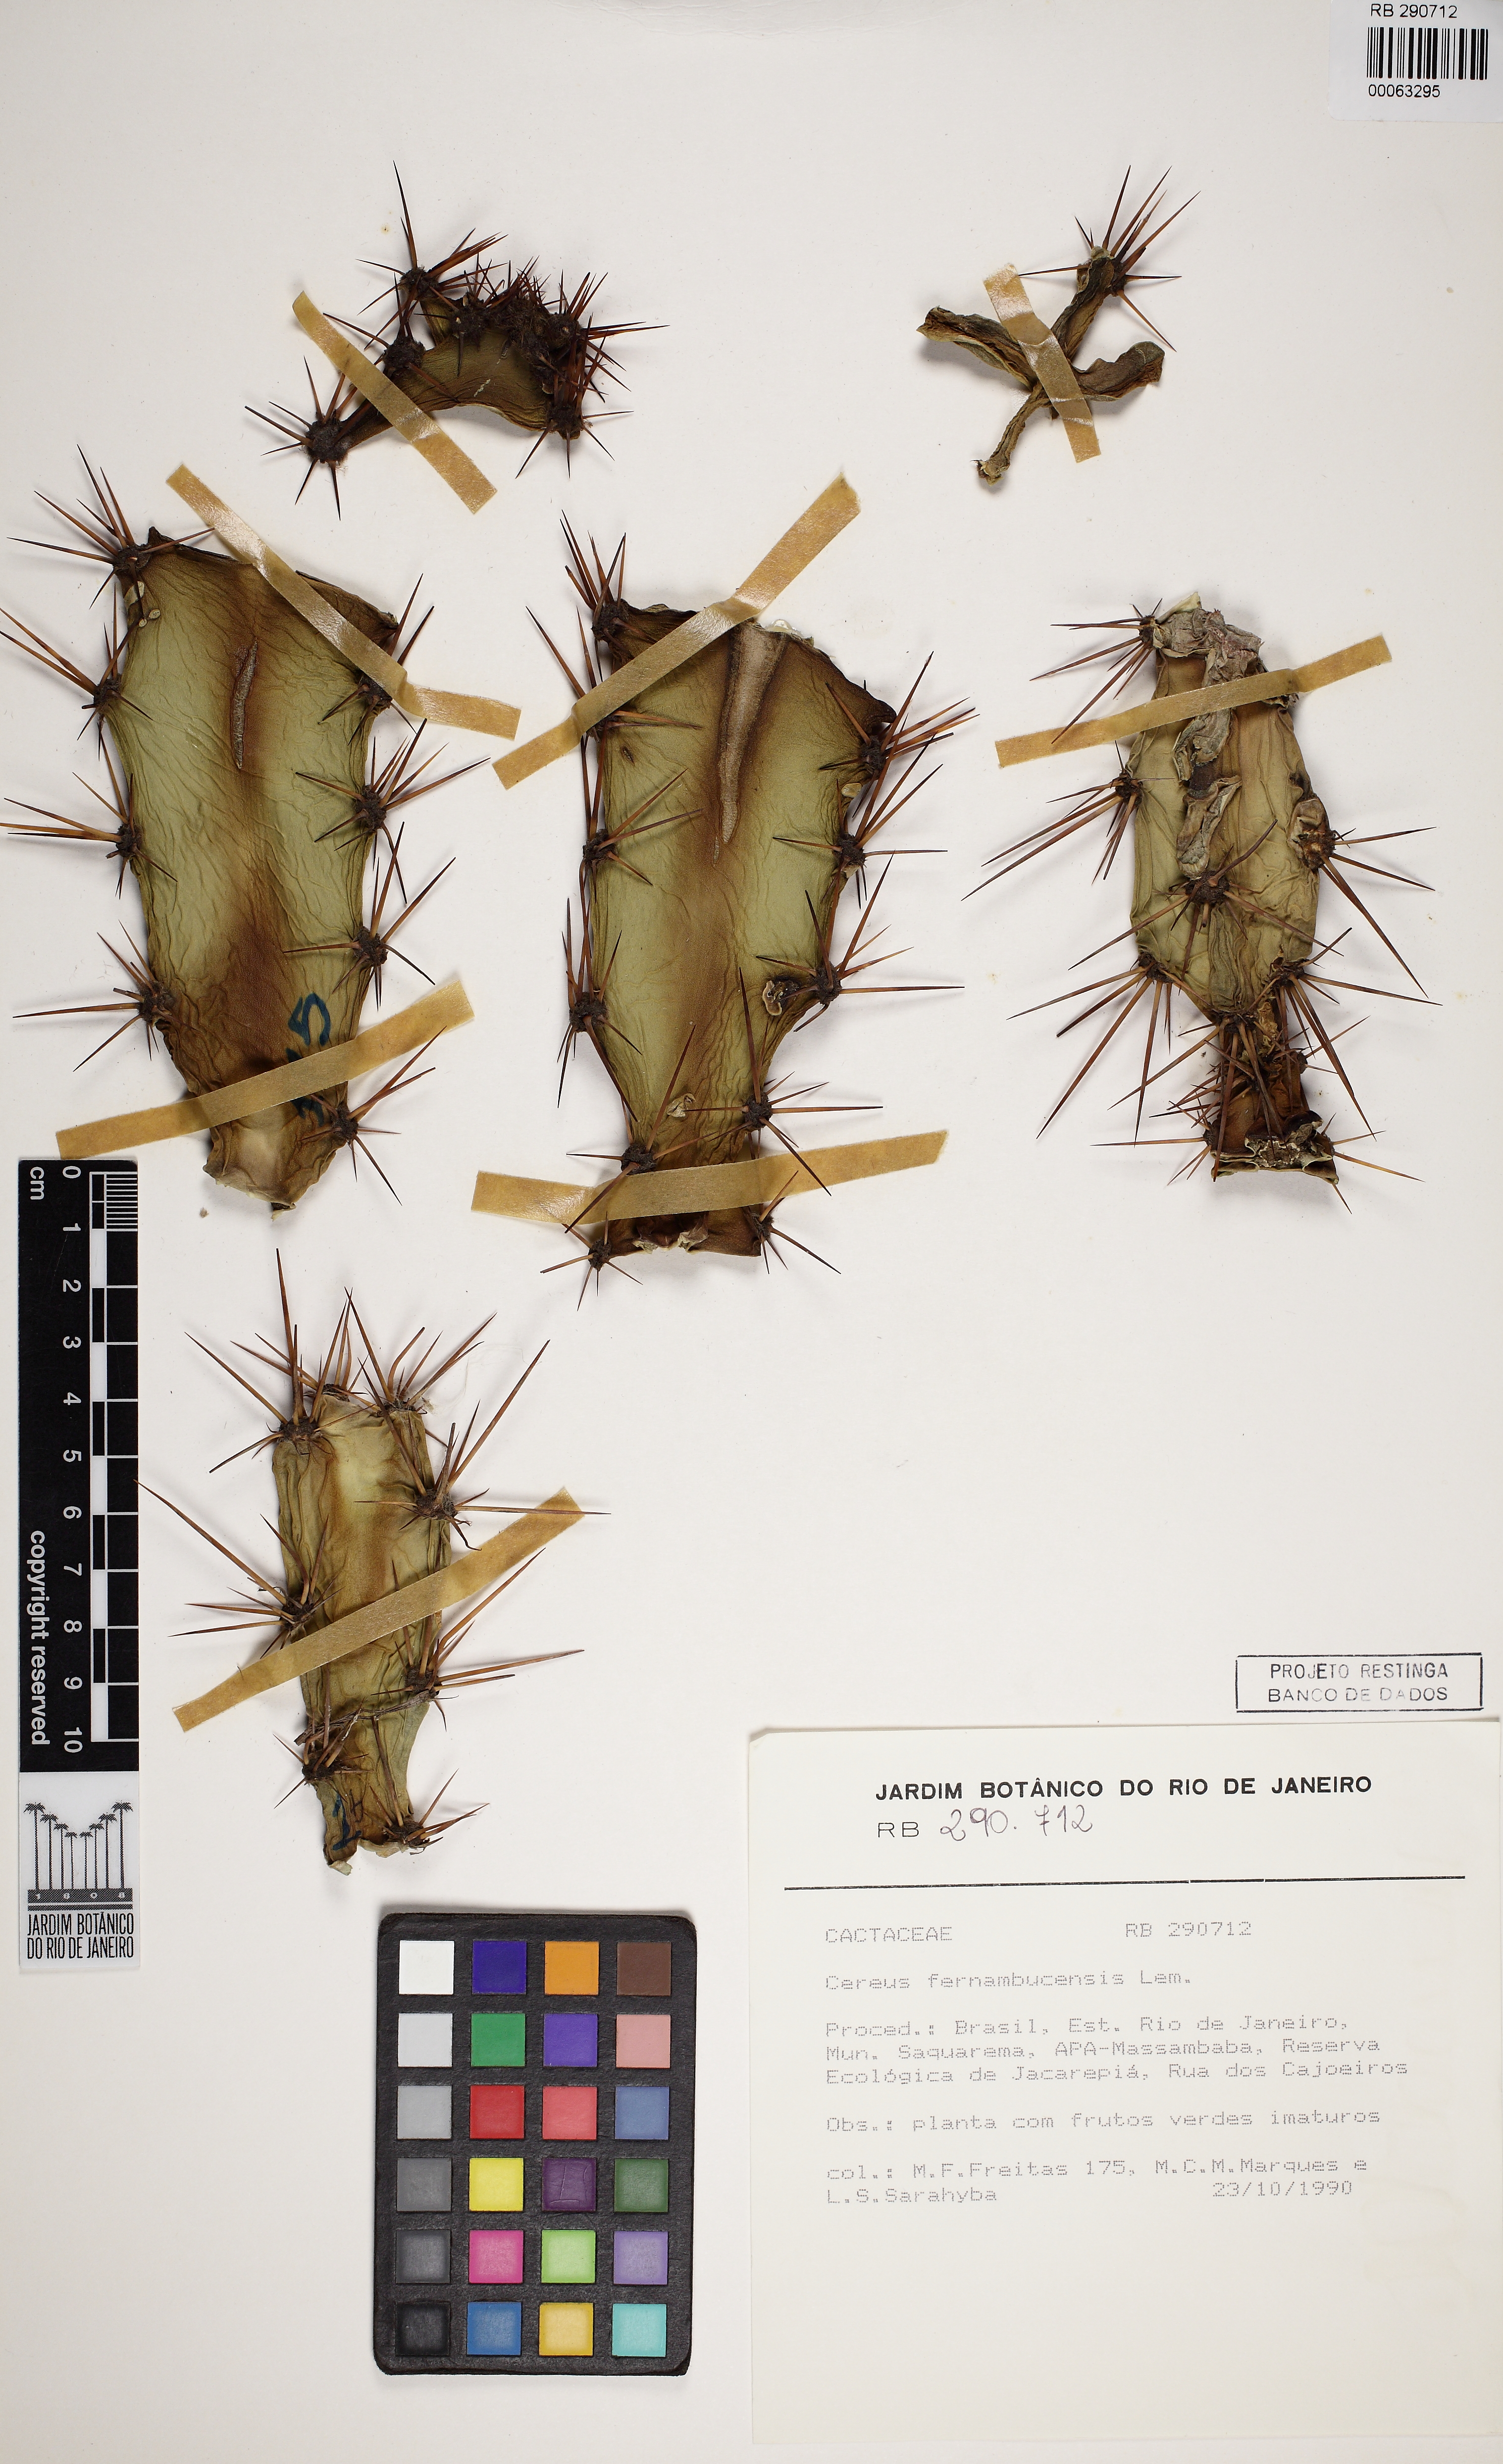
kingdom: Plantae
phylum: Tracheophyta
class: Magnoliopsida
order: Caryophyllales
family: Cactaceae
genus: Cereus
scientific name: Cereus fernambucensis
